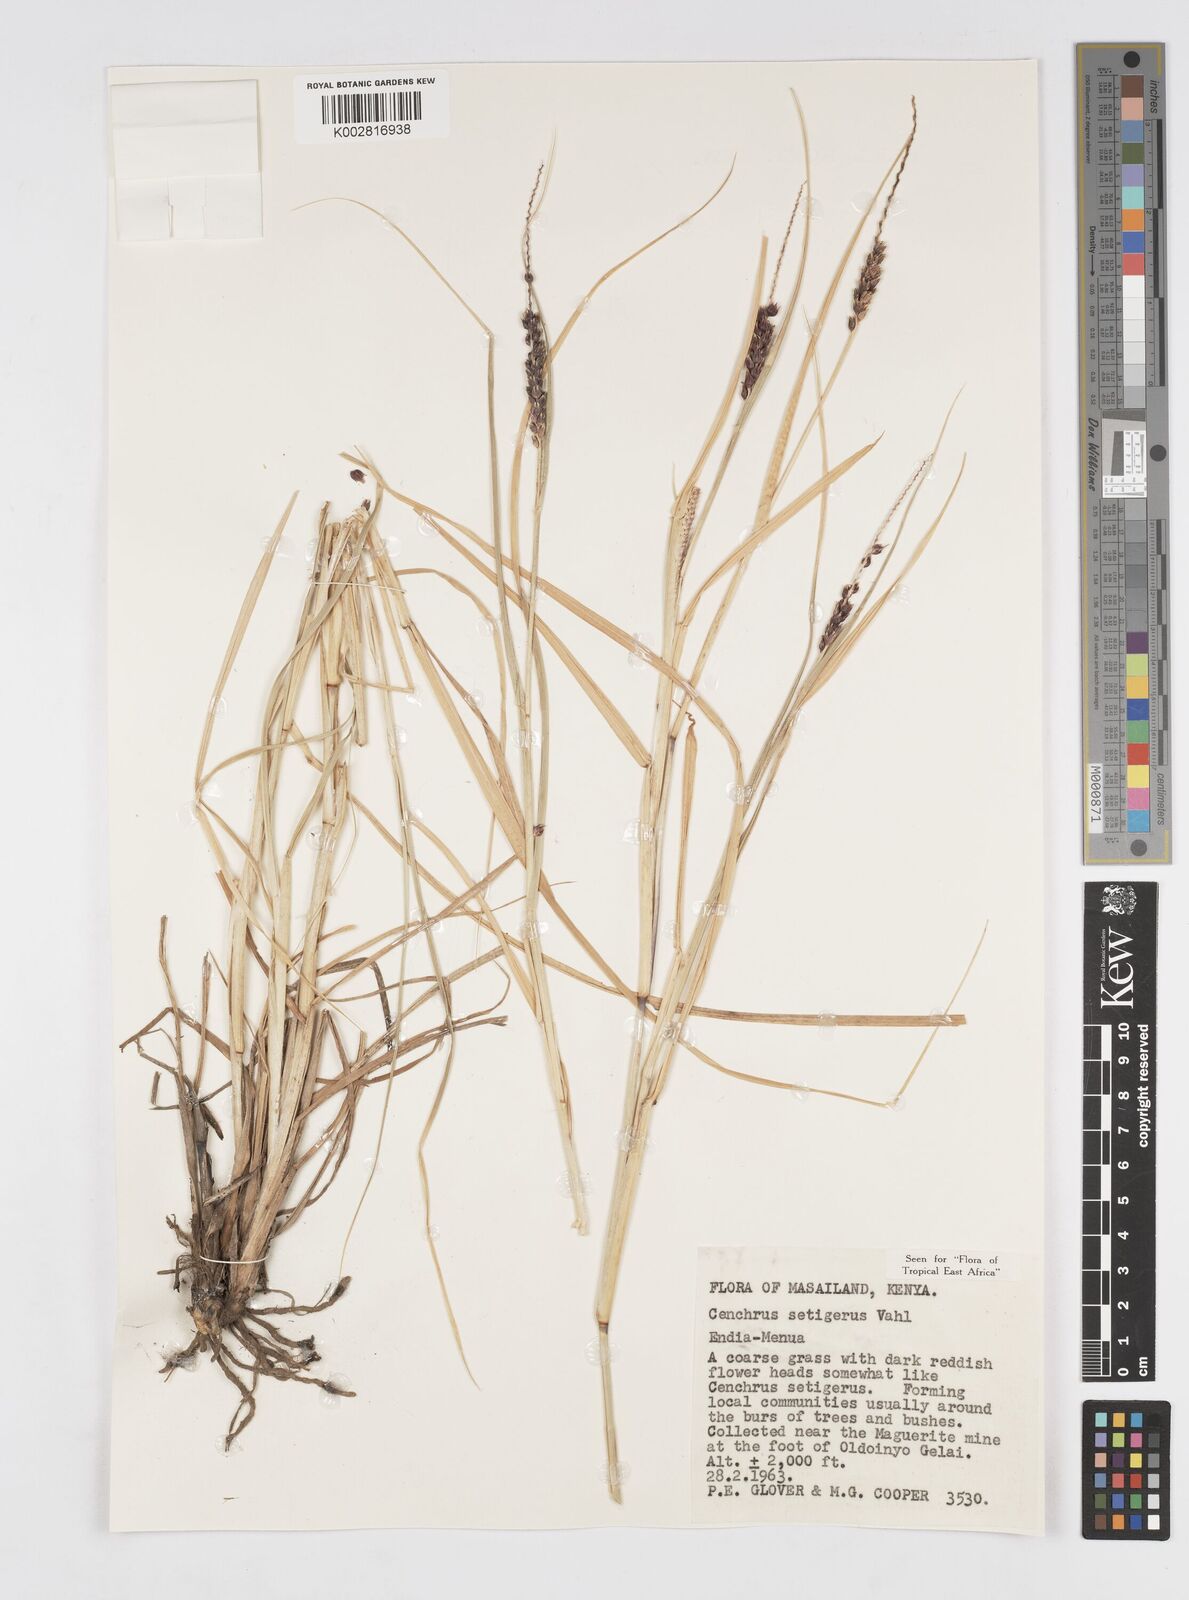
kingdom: Plantae
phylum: Tracheophyta
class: Liliopsida
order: Poales
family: Poaceae
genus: Cenchrus
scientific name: Cenchrus setigerus
